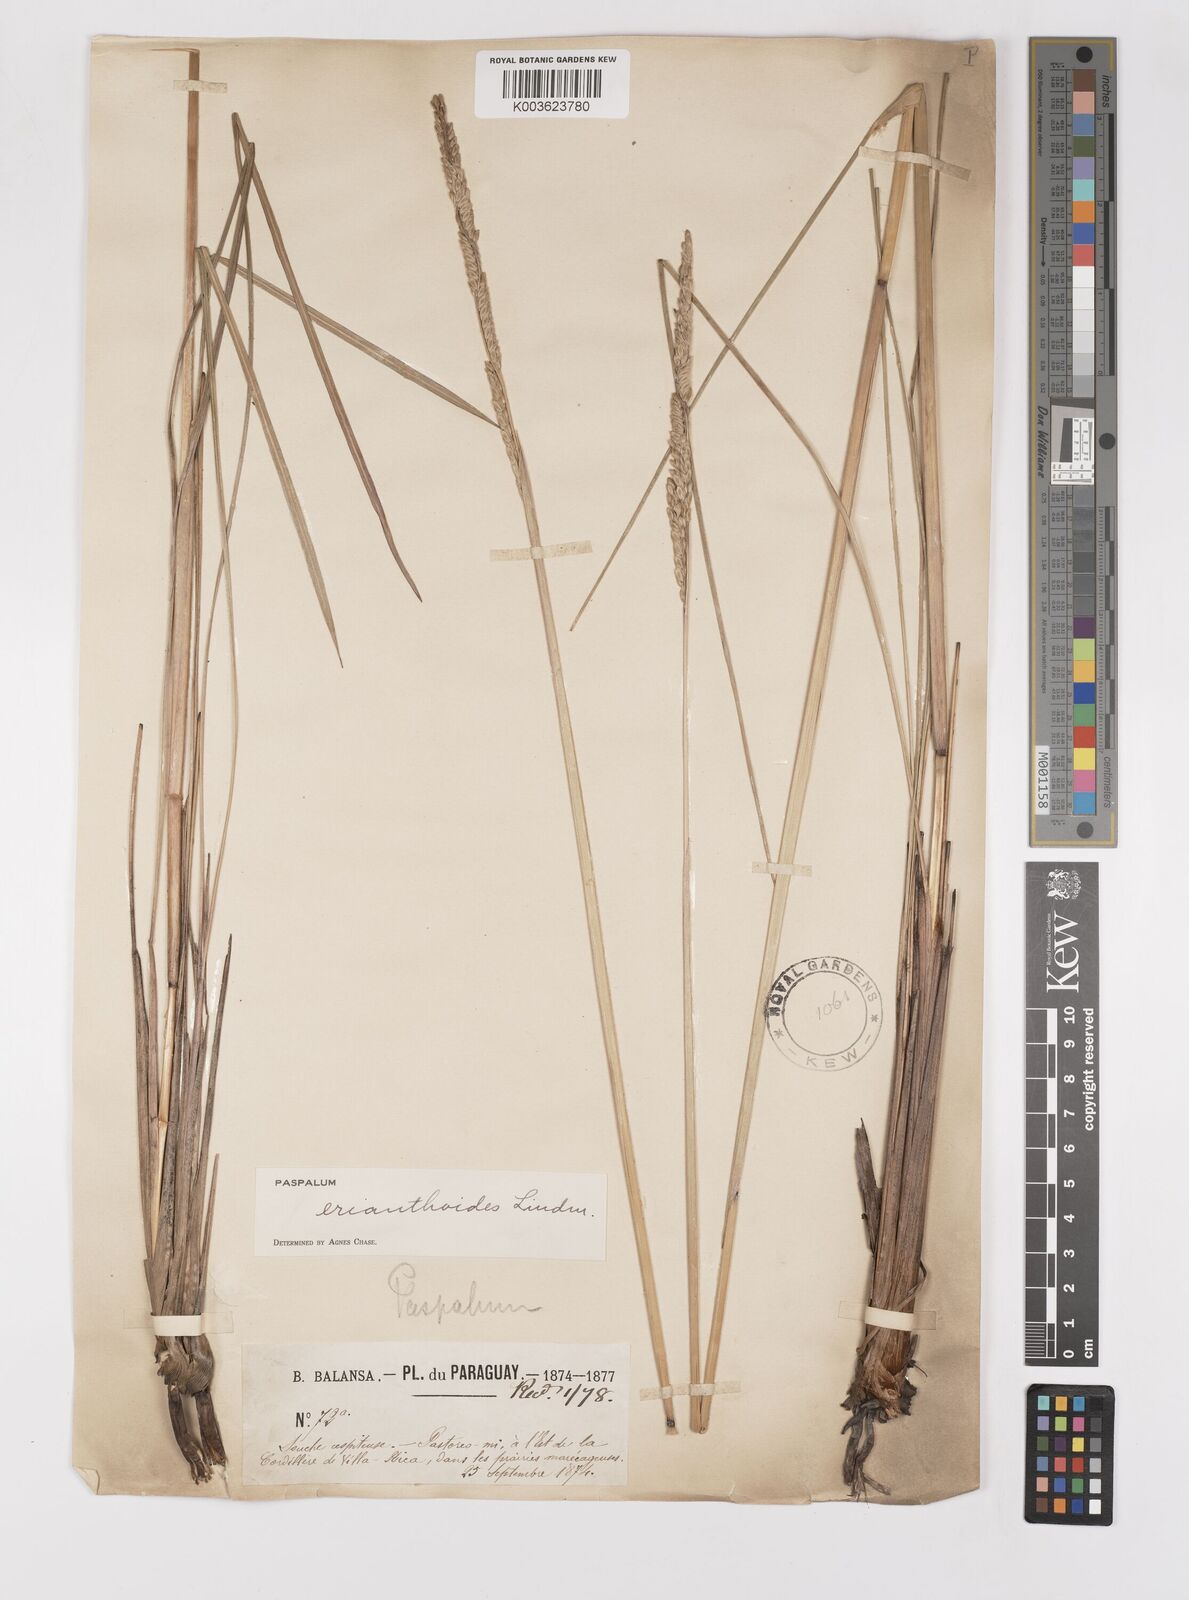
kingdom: Plantae
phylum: Tracheophyta
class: Liliopsida
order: Poales
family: Poaceae
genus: Paspalum
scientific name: Paspalum erianthoides
